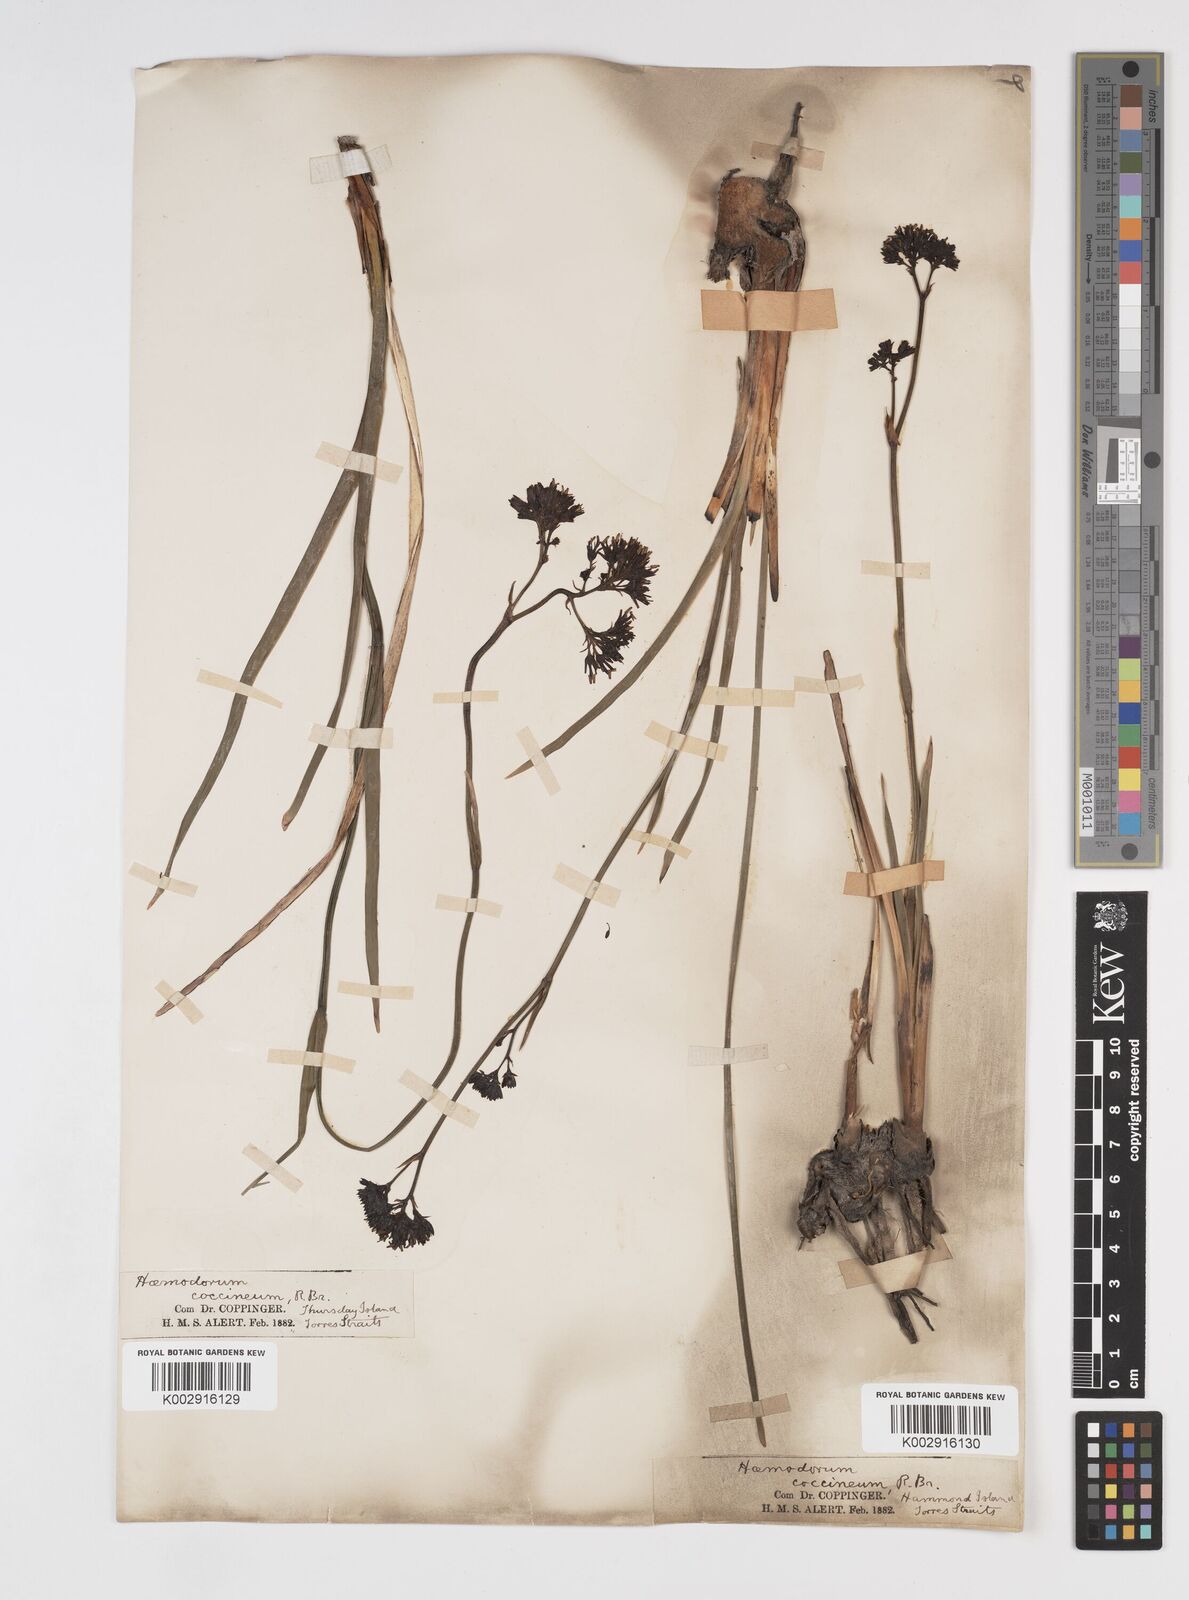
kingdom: Plantae
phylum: Tracheophyta
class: Liliopsida
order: Commelinales
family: Haemodoraceae
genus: Haemodorum
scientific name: Haemodorum coccineum
